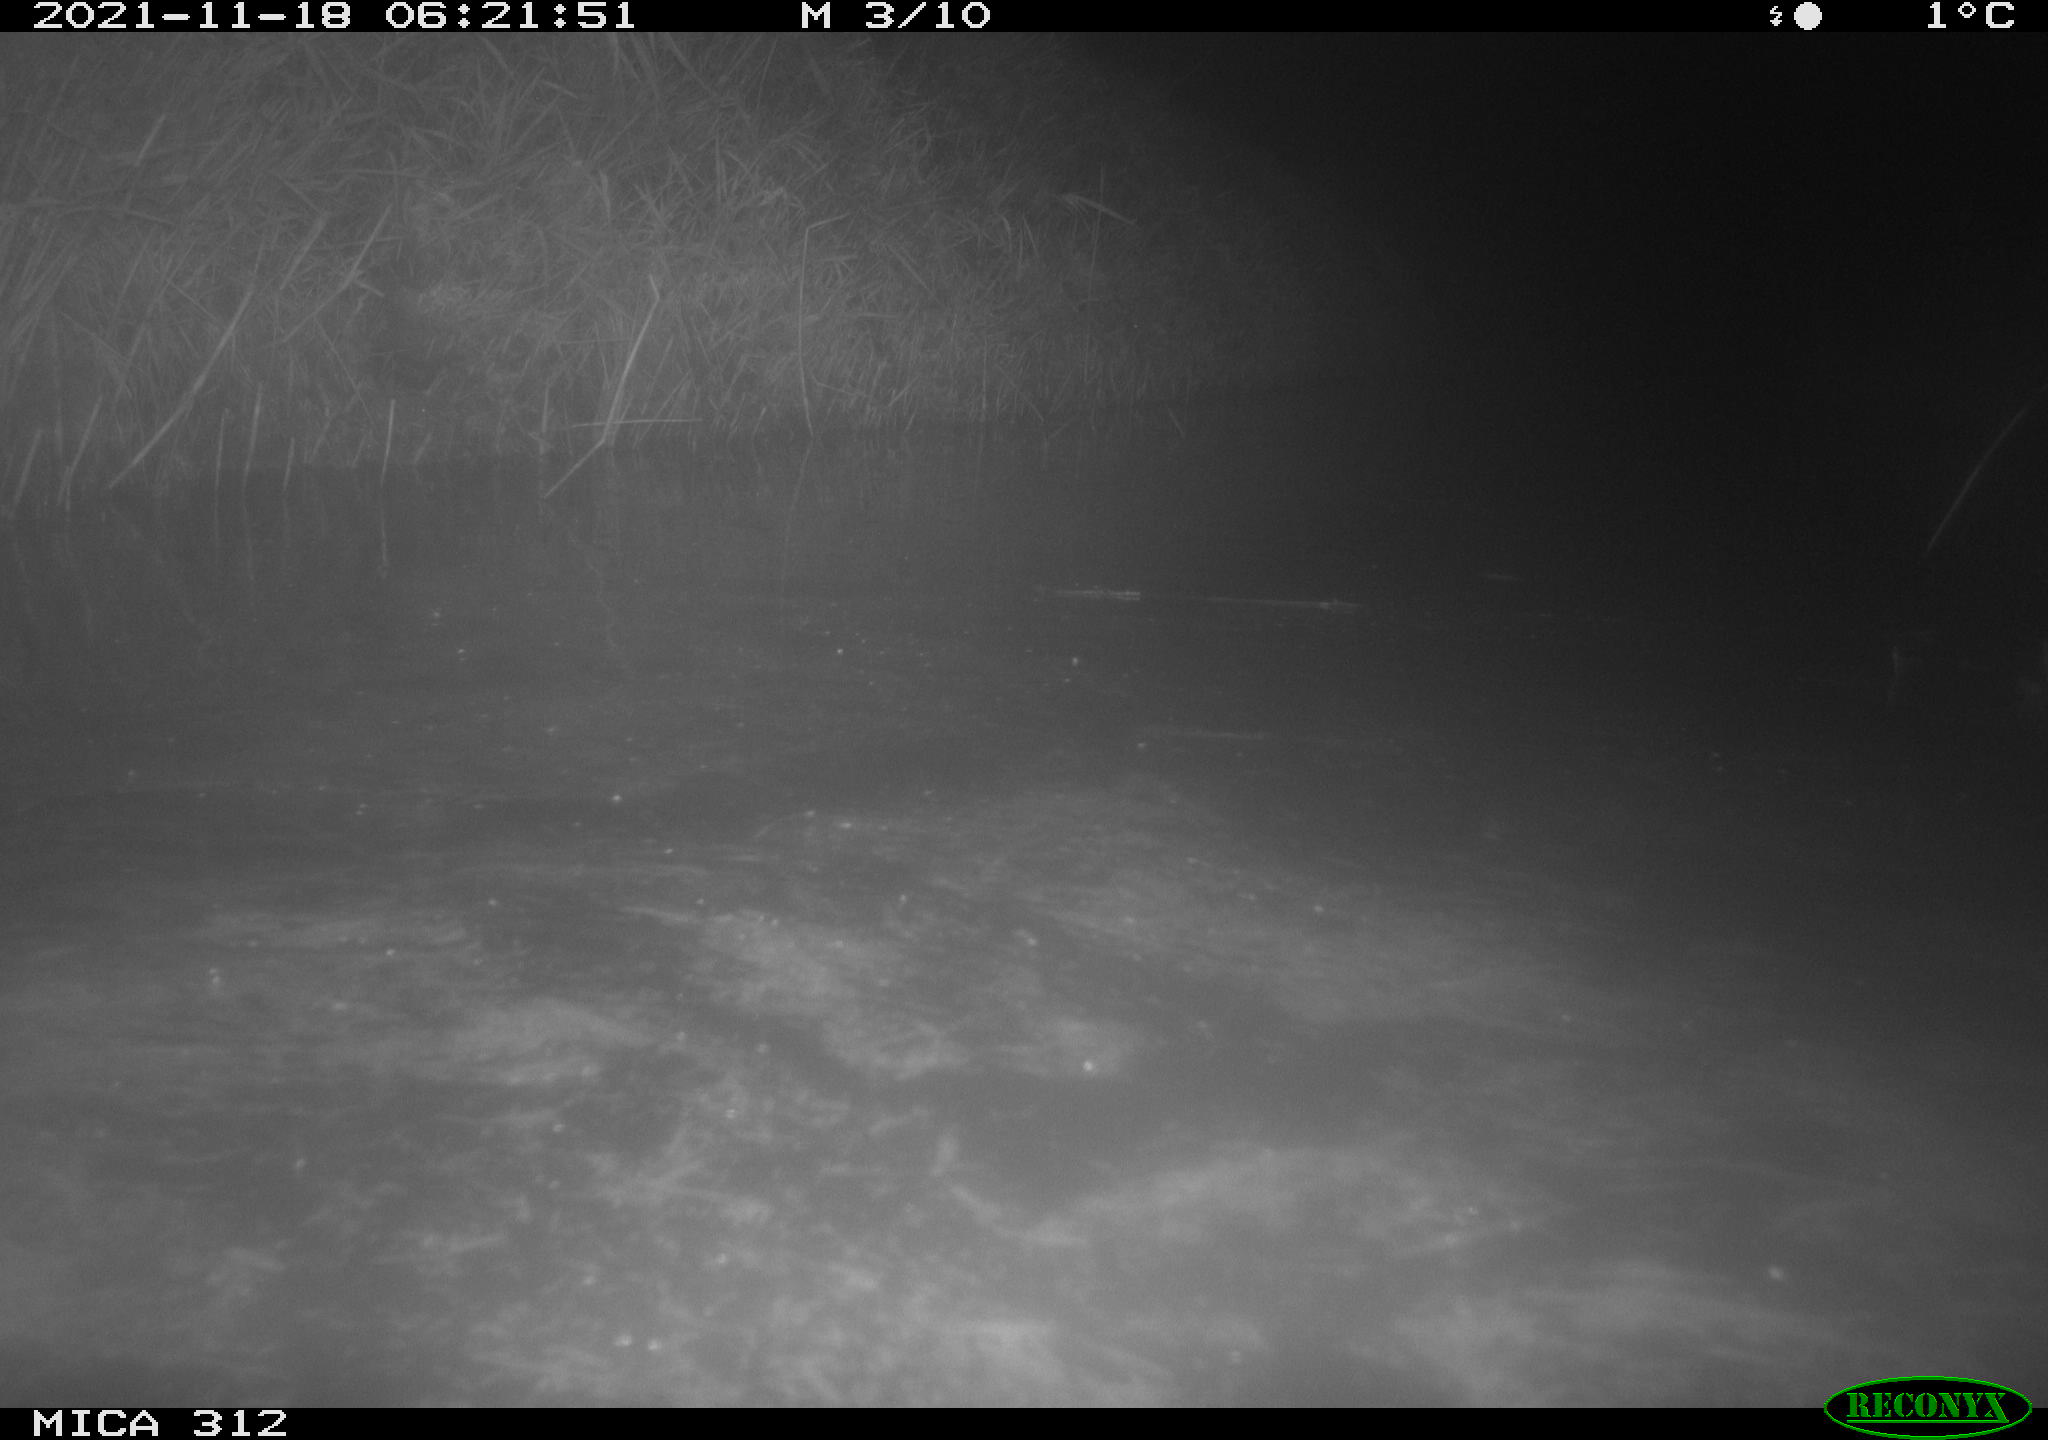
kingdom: Animalia
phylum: Chordata
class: Mammalia
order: Rodentia
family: Muridae
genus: Rattus
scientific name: Rattus norvegicus
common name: Brown rat
